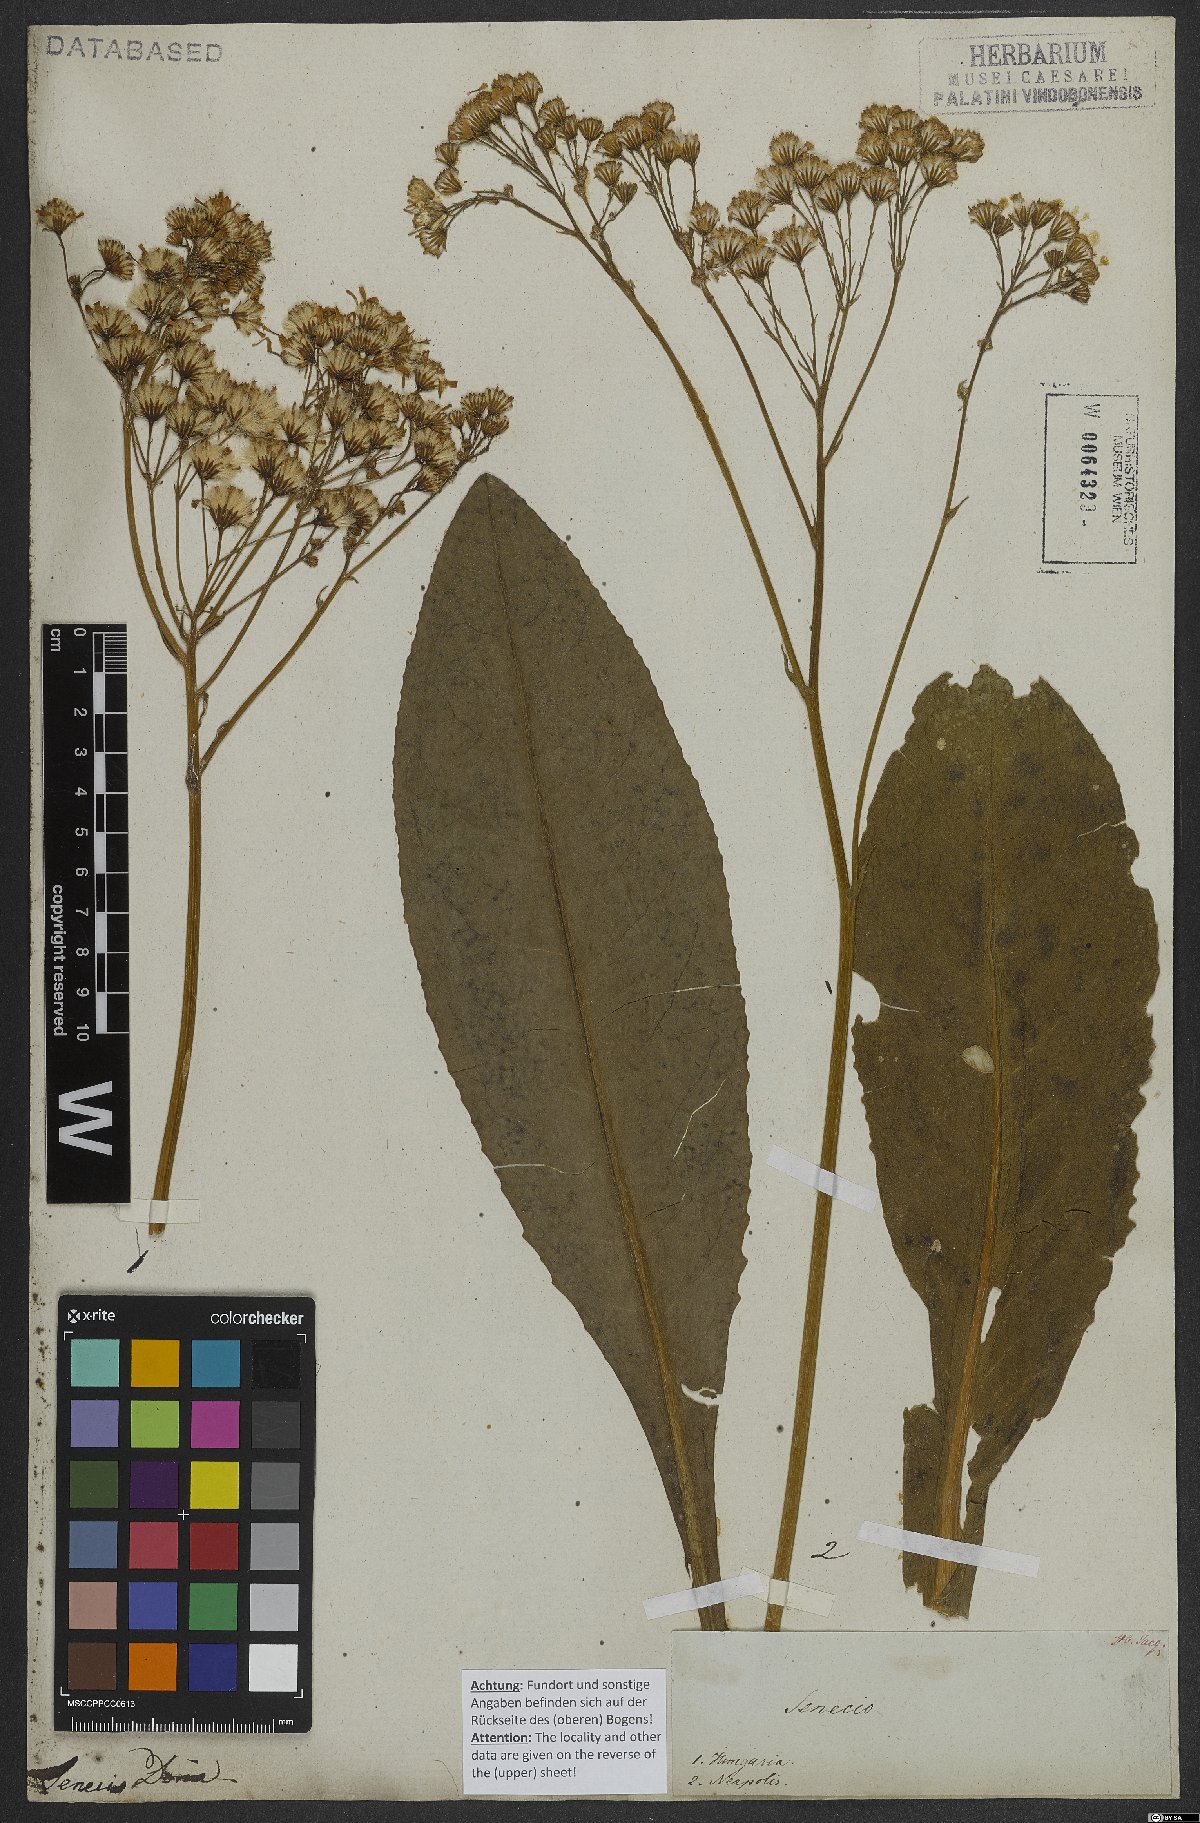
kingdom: Plantae
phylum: Tracheophyta
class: Magnoliopsida
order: Asterales
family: Asteraceae
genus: Senecio
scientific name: Senecio doria
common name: Golden ragwort
